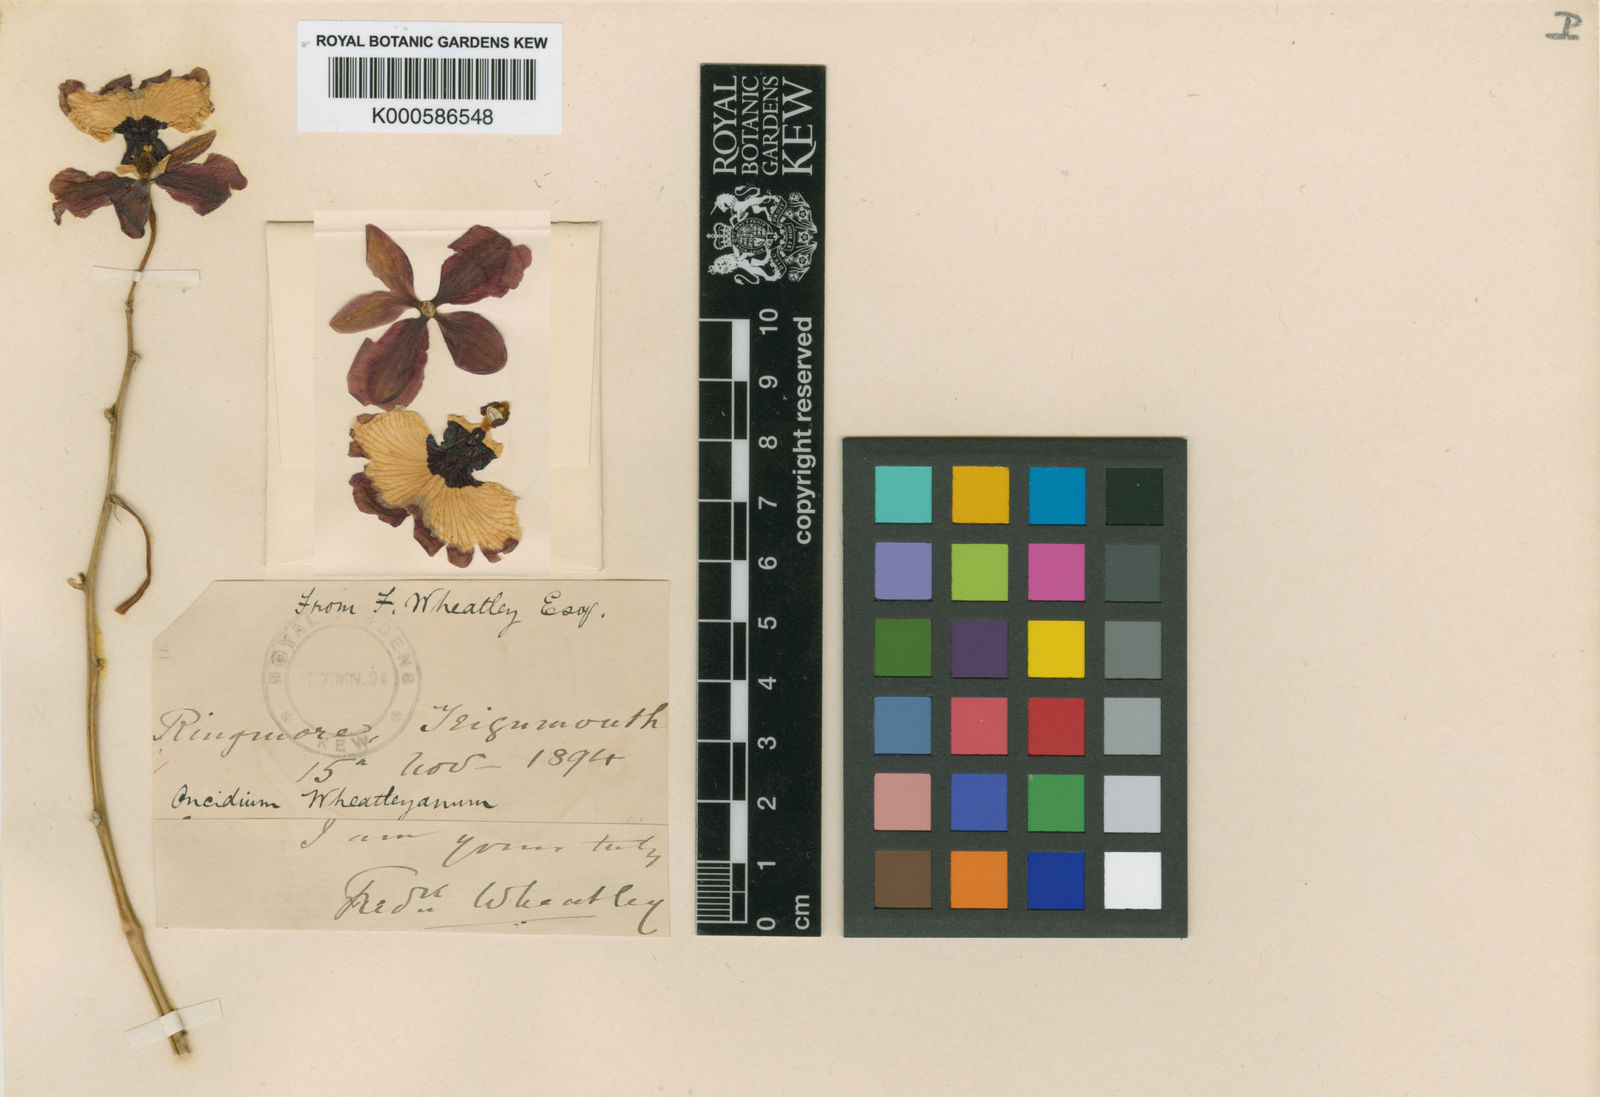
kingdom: Plantae
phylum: Tracheophyta
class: Liliopsida
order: Asparagales
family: Orchidaceae
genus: Gomesa
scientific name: Gomesa gardneri
